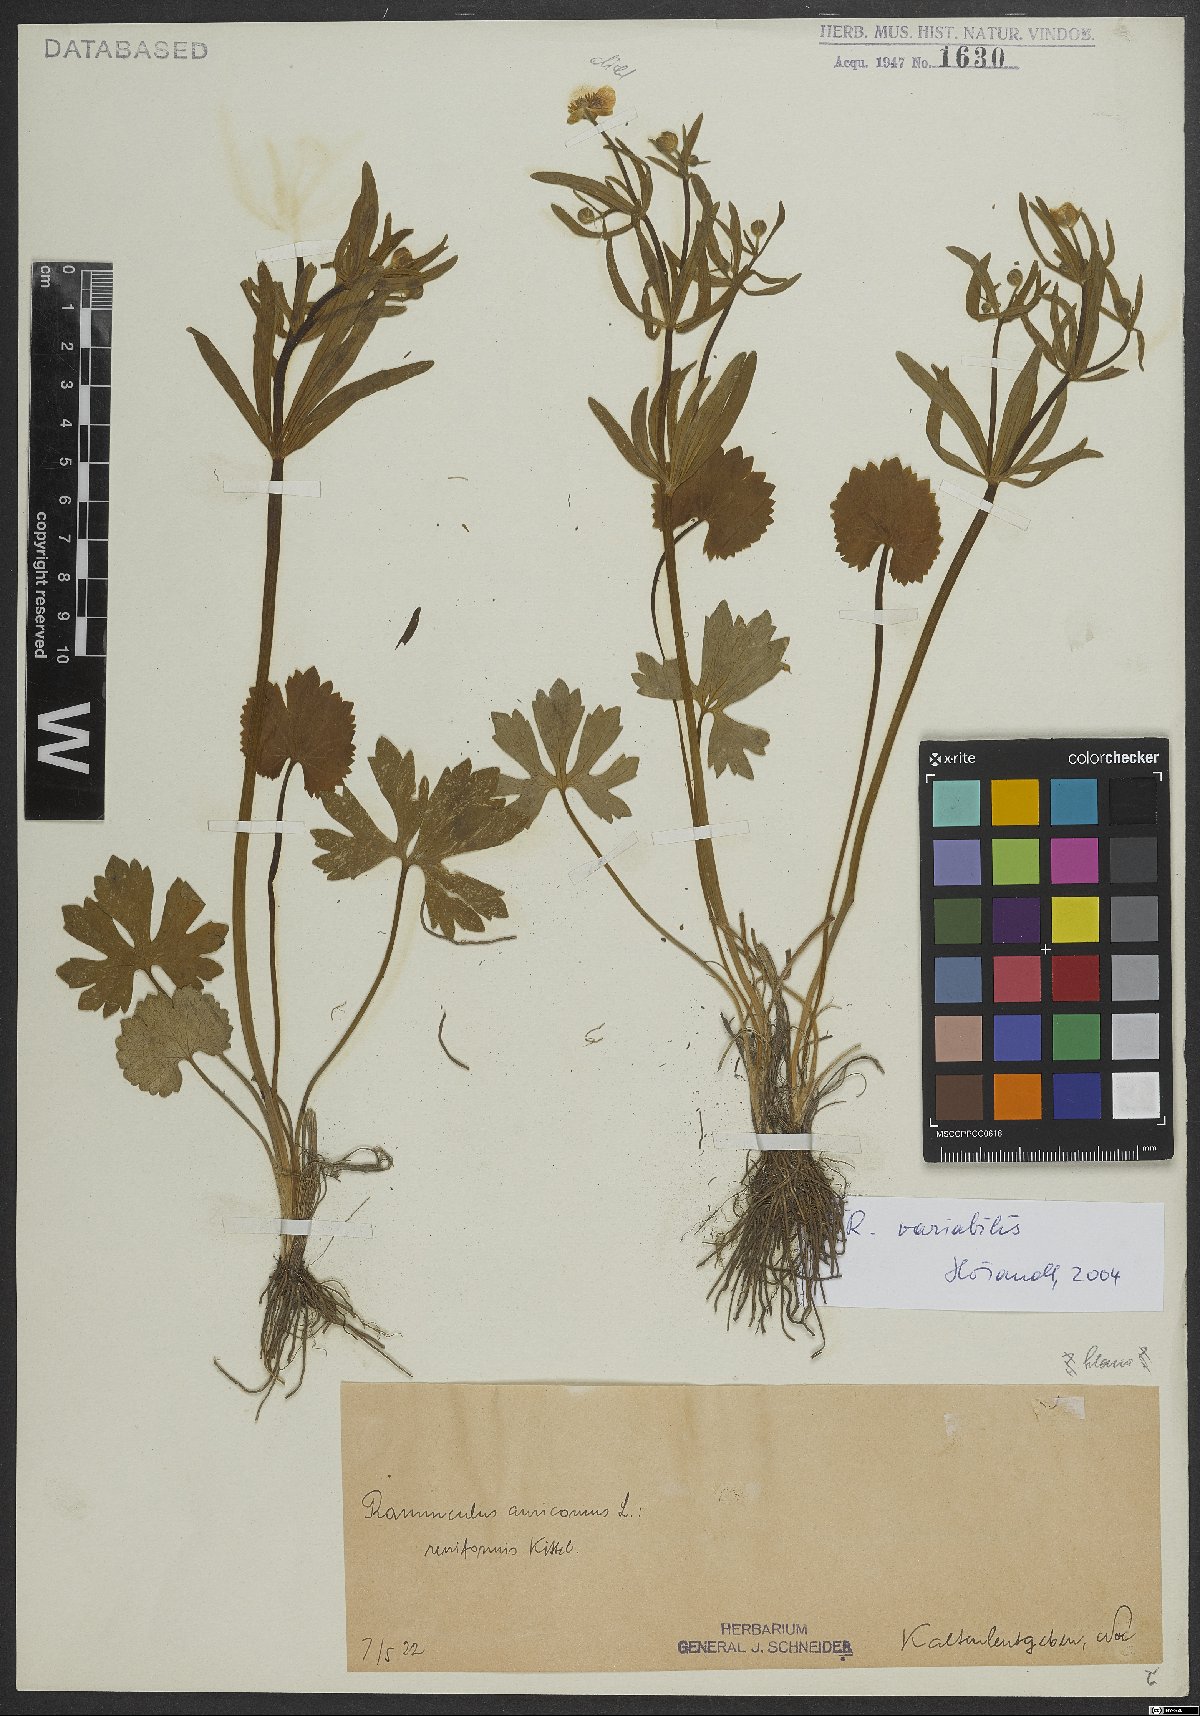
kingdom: Plantae
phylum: Tracheophyta
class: Magnoliopsida
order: Ranunculales
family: Ranunculaceae
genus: Ranunculus
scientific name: Ranunculus variabilis
